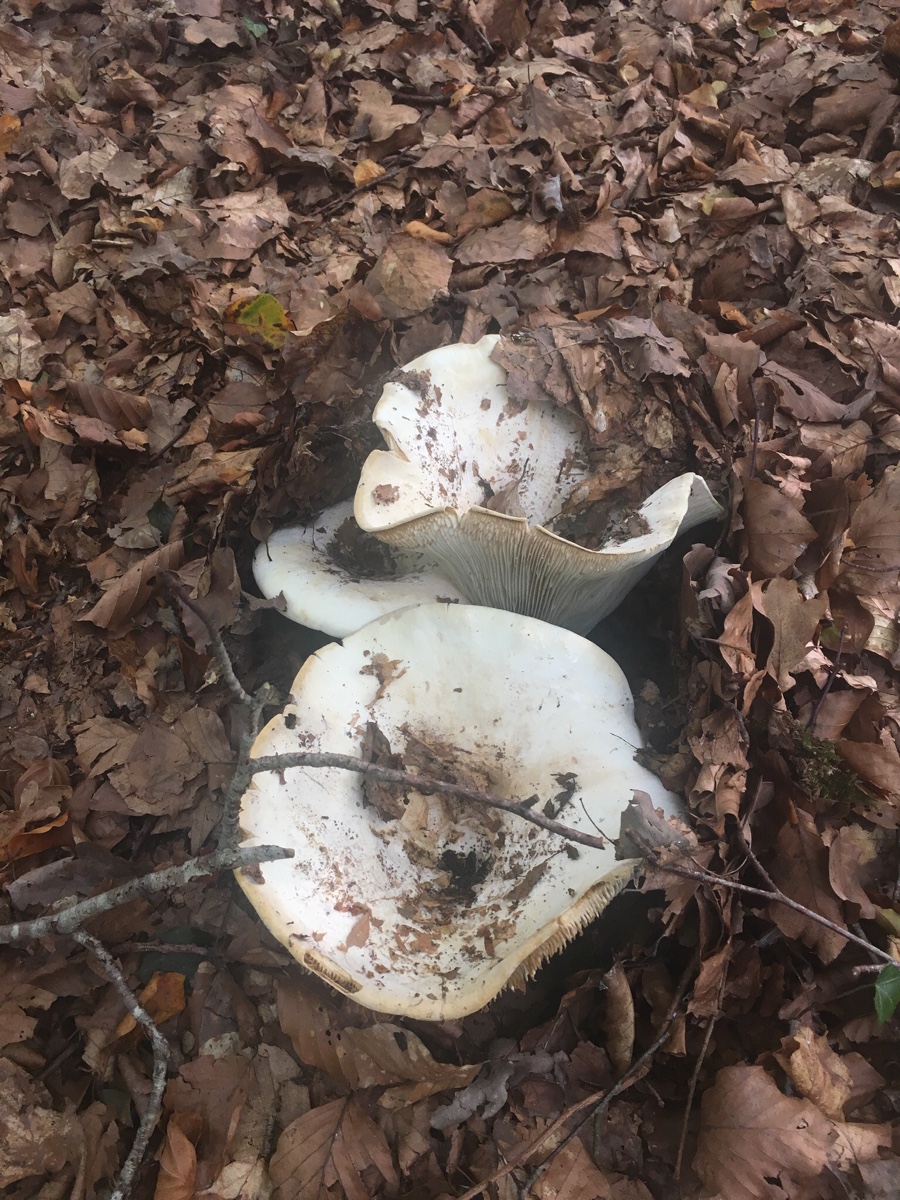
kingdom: Fungi
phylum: Basidiomycota
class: Agaricomycetes
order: Russulales
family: Russulaceae
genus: Lactifluus
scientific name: Lactifluus
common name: mælkehat
